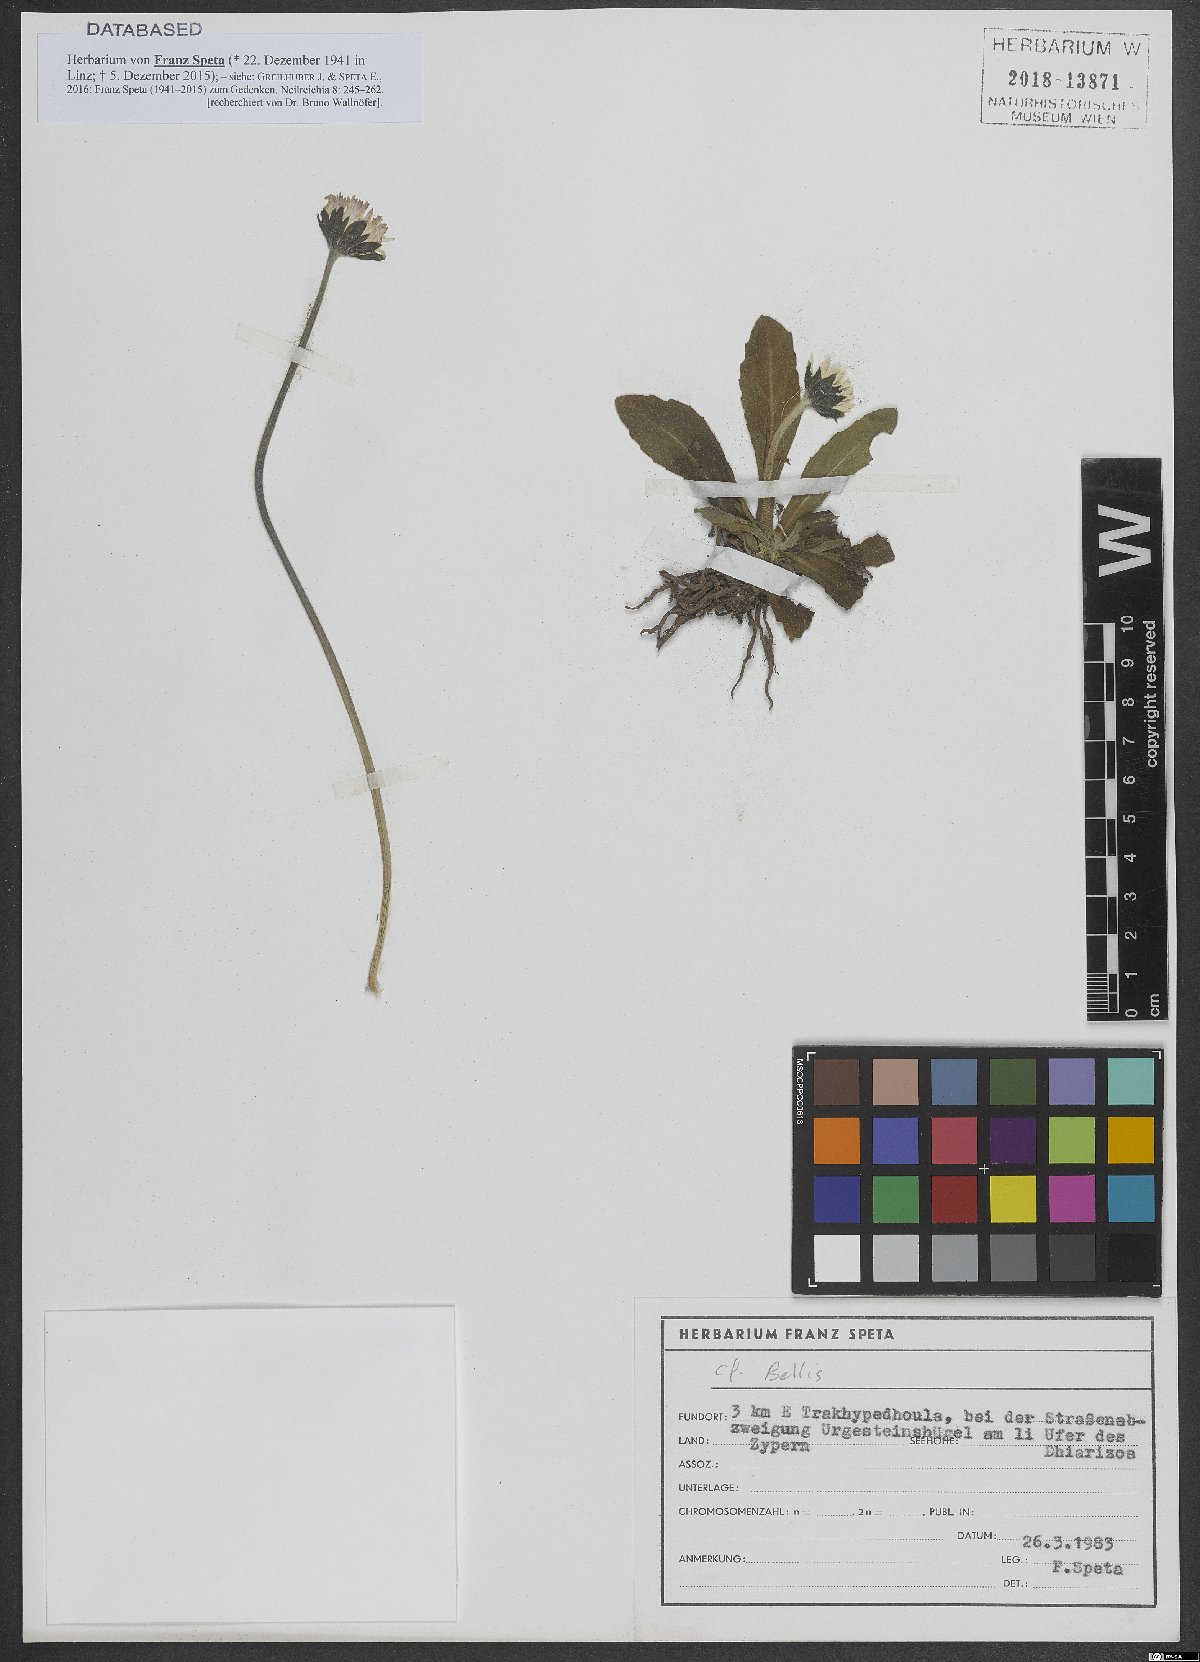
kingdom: Plantae
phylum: Tracheophyta
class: Magnoliopsida
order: Asterales
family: Asteraceae
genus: Bellis
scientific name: Bellis
